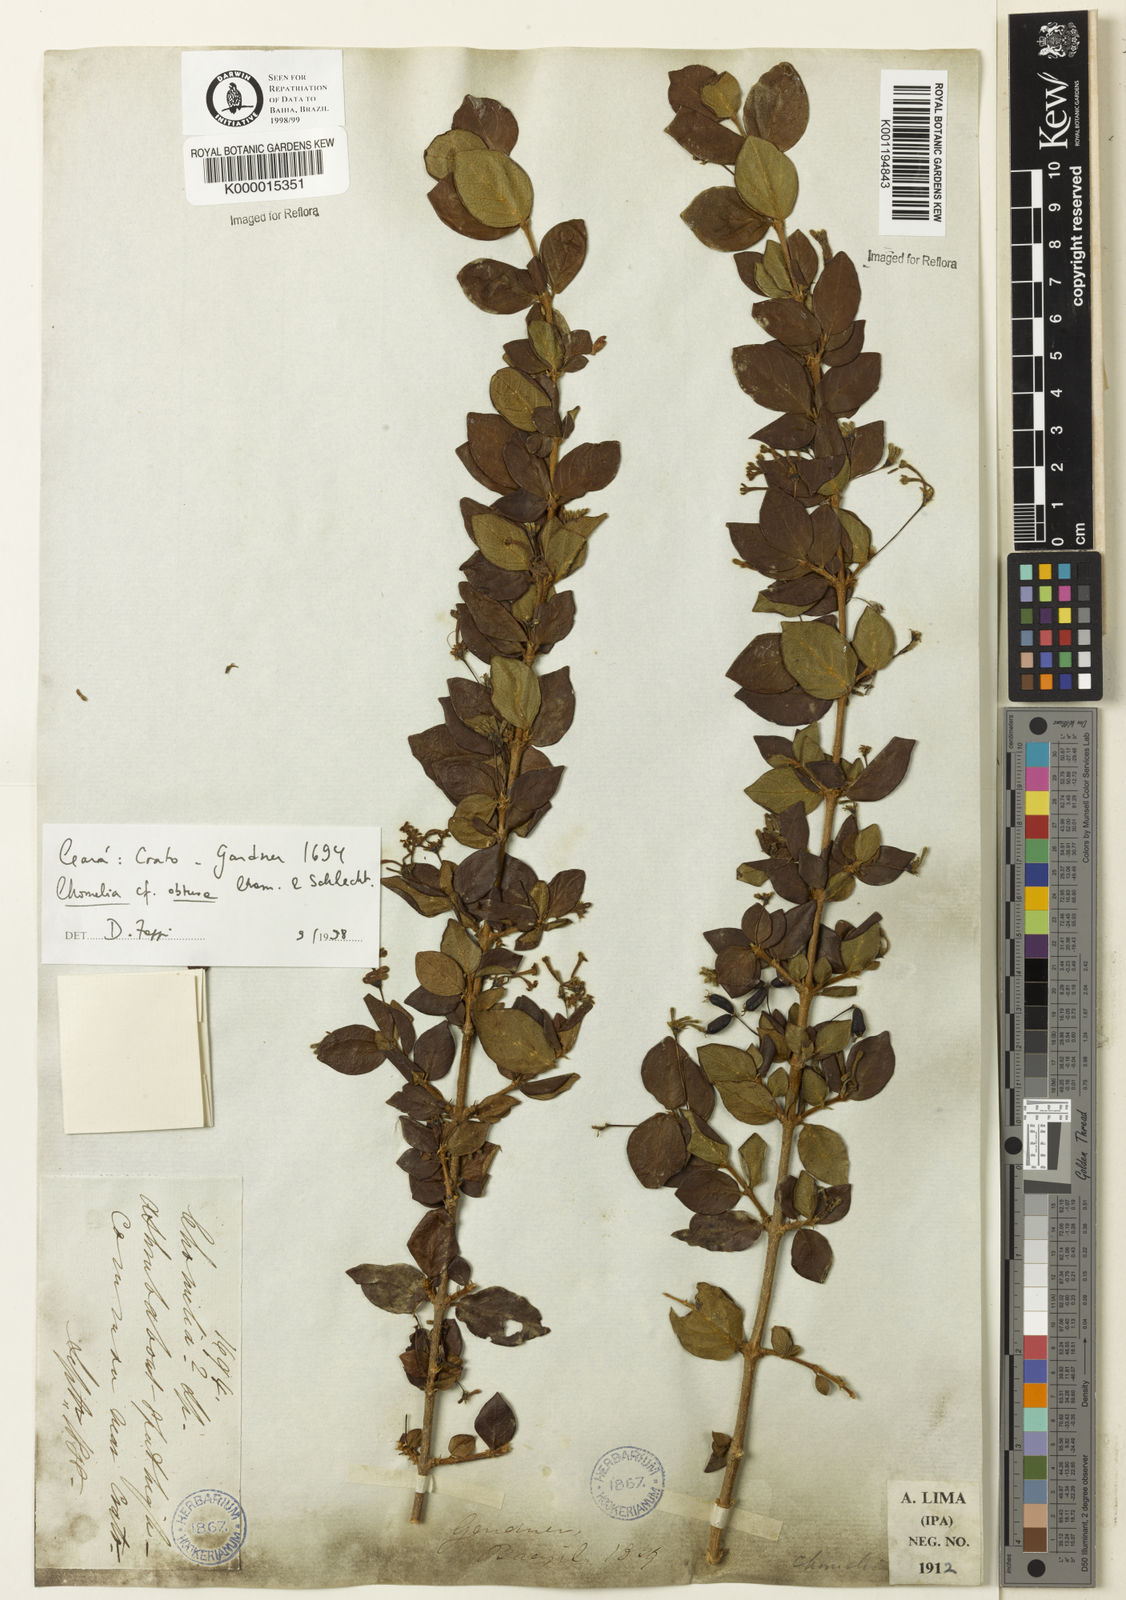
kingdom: Plantae
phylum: Tracheophyta
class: Magnoliopsida
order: Gentianales
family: Rubiaceae
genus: Chomelia
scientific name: Chomelia obtusa
